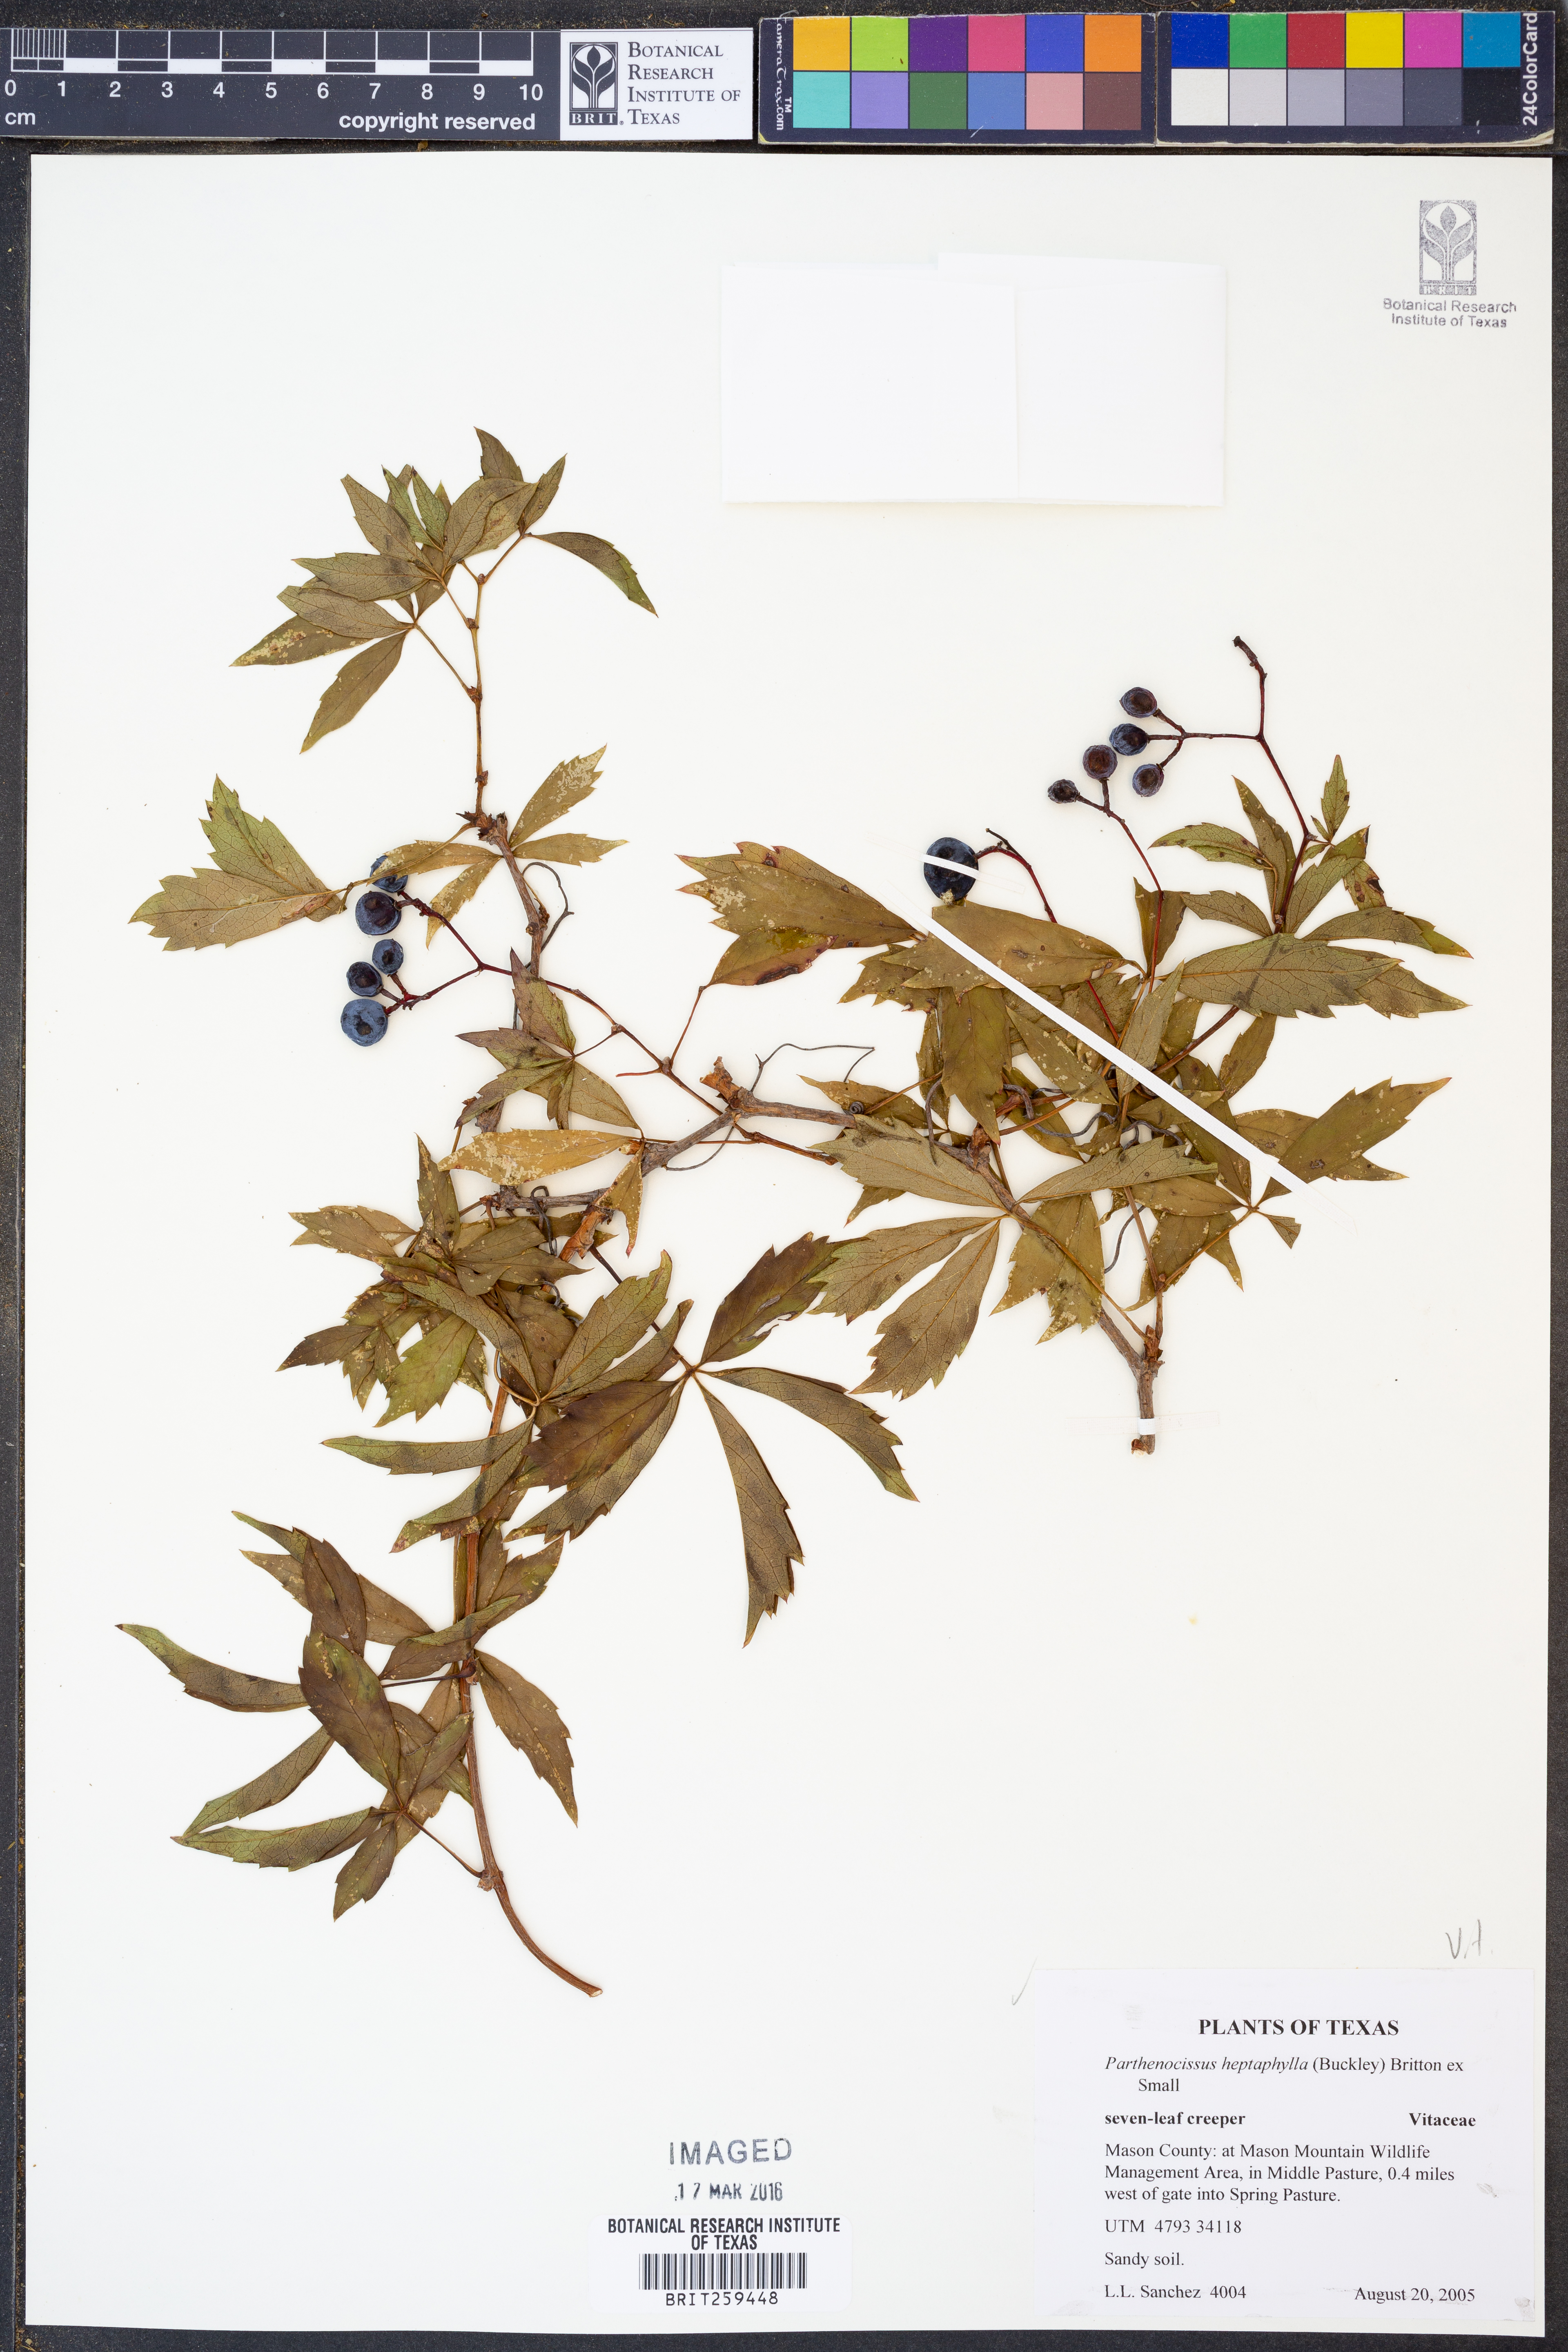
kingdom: Plantae
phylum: Tracheophyta
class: Magnoliopsida
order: Vitales
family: Vitaceae
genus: Parthenocissus
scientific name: Parthenocissus heptaphylla
